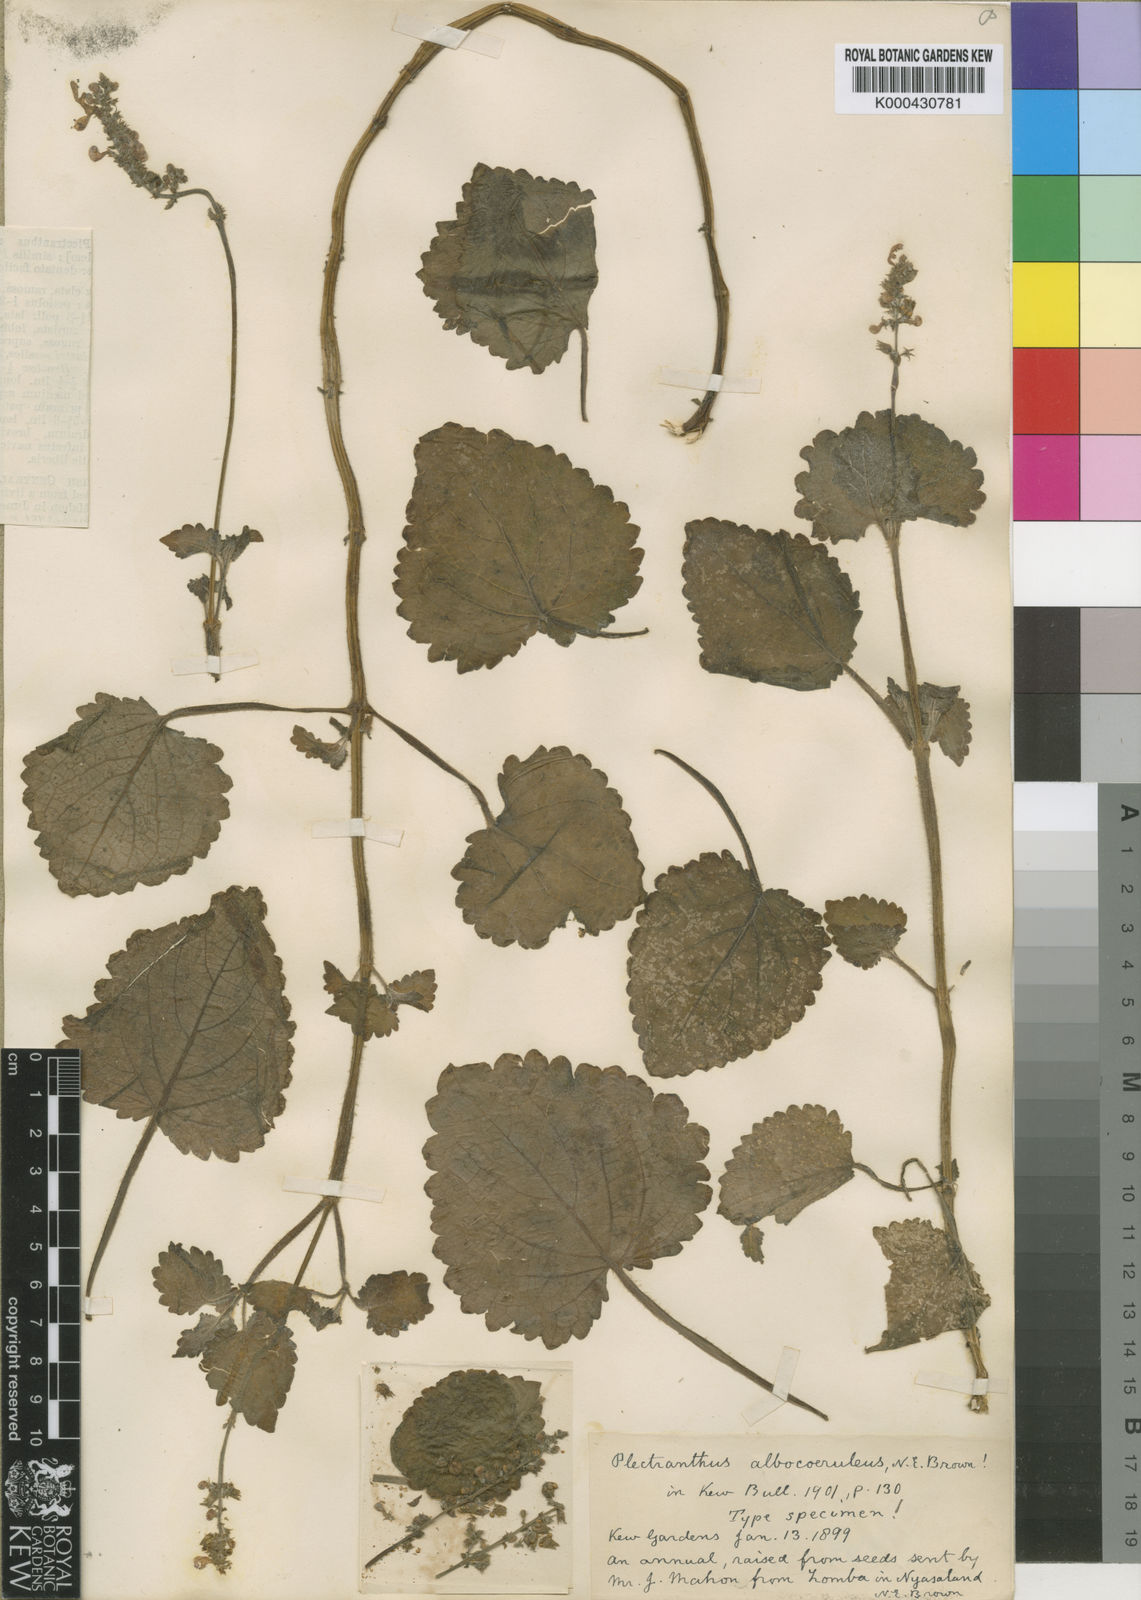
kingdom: Plantae
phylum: Tracheophyta
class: Magnoliopsida
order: Lamiales
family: Lamiaceae
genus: Equilabium
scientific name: Equilabium stenosiphon
